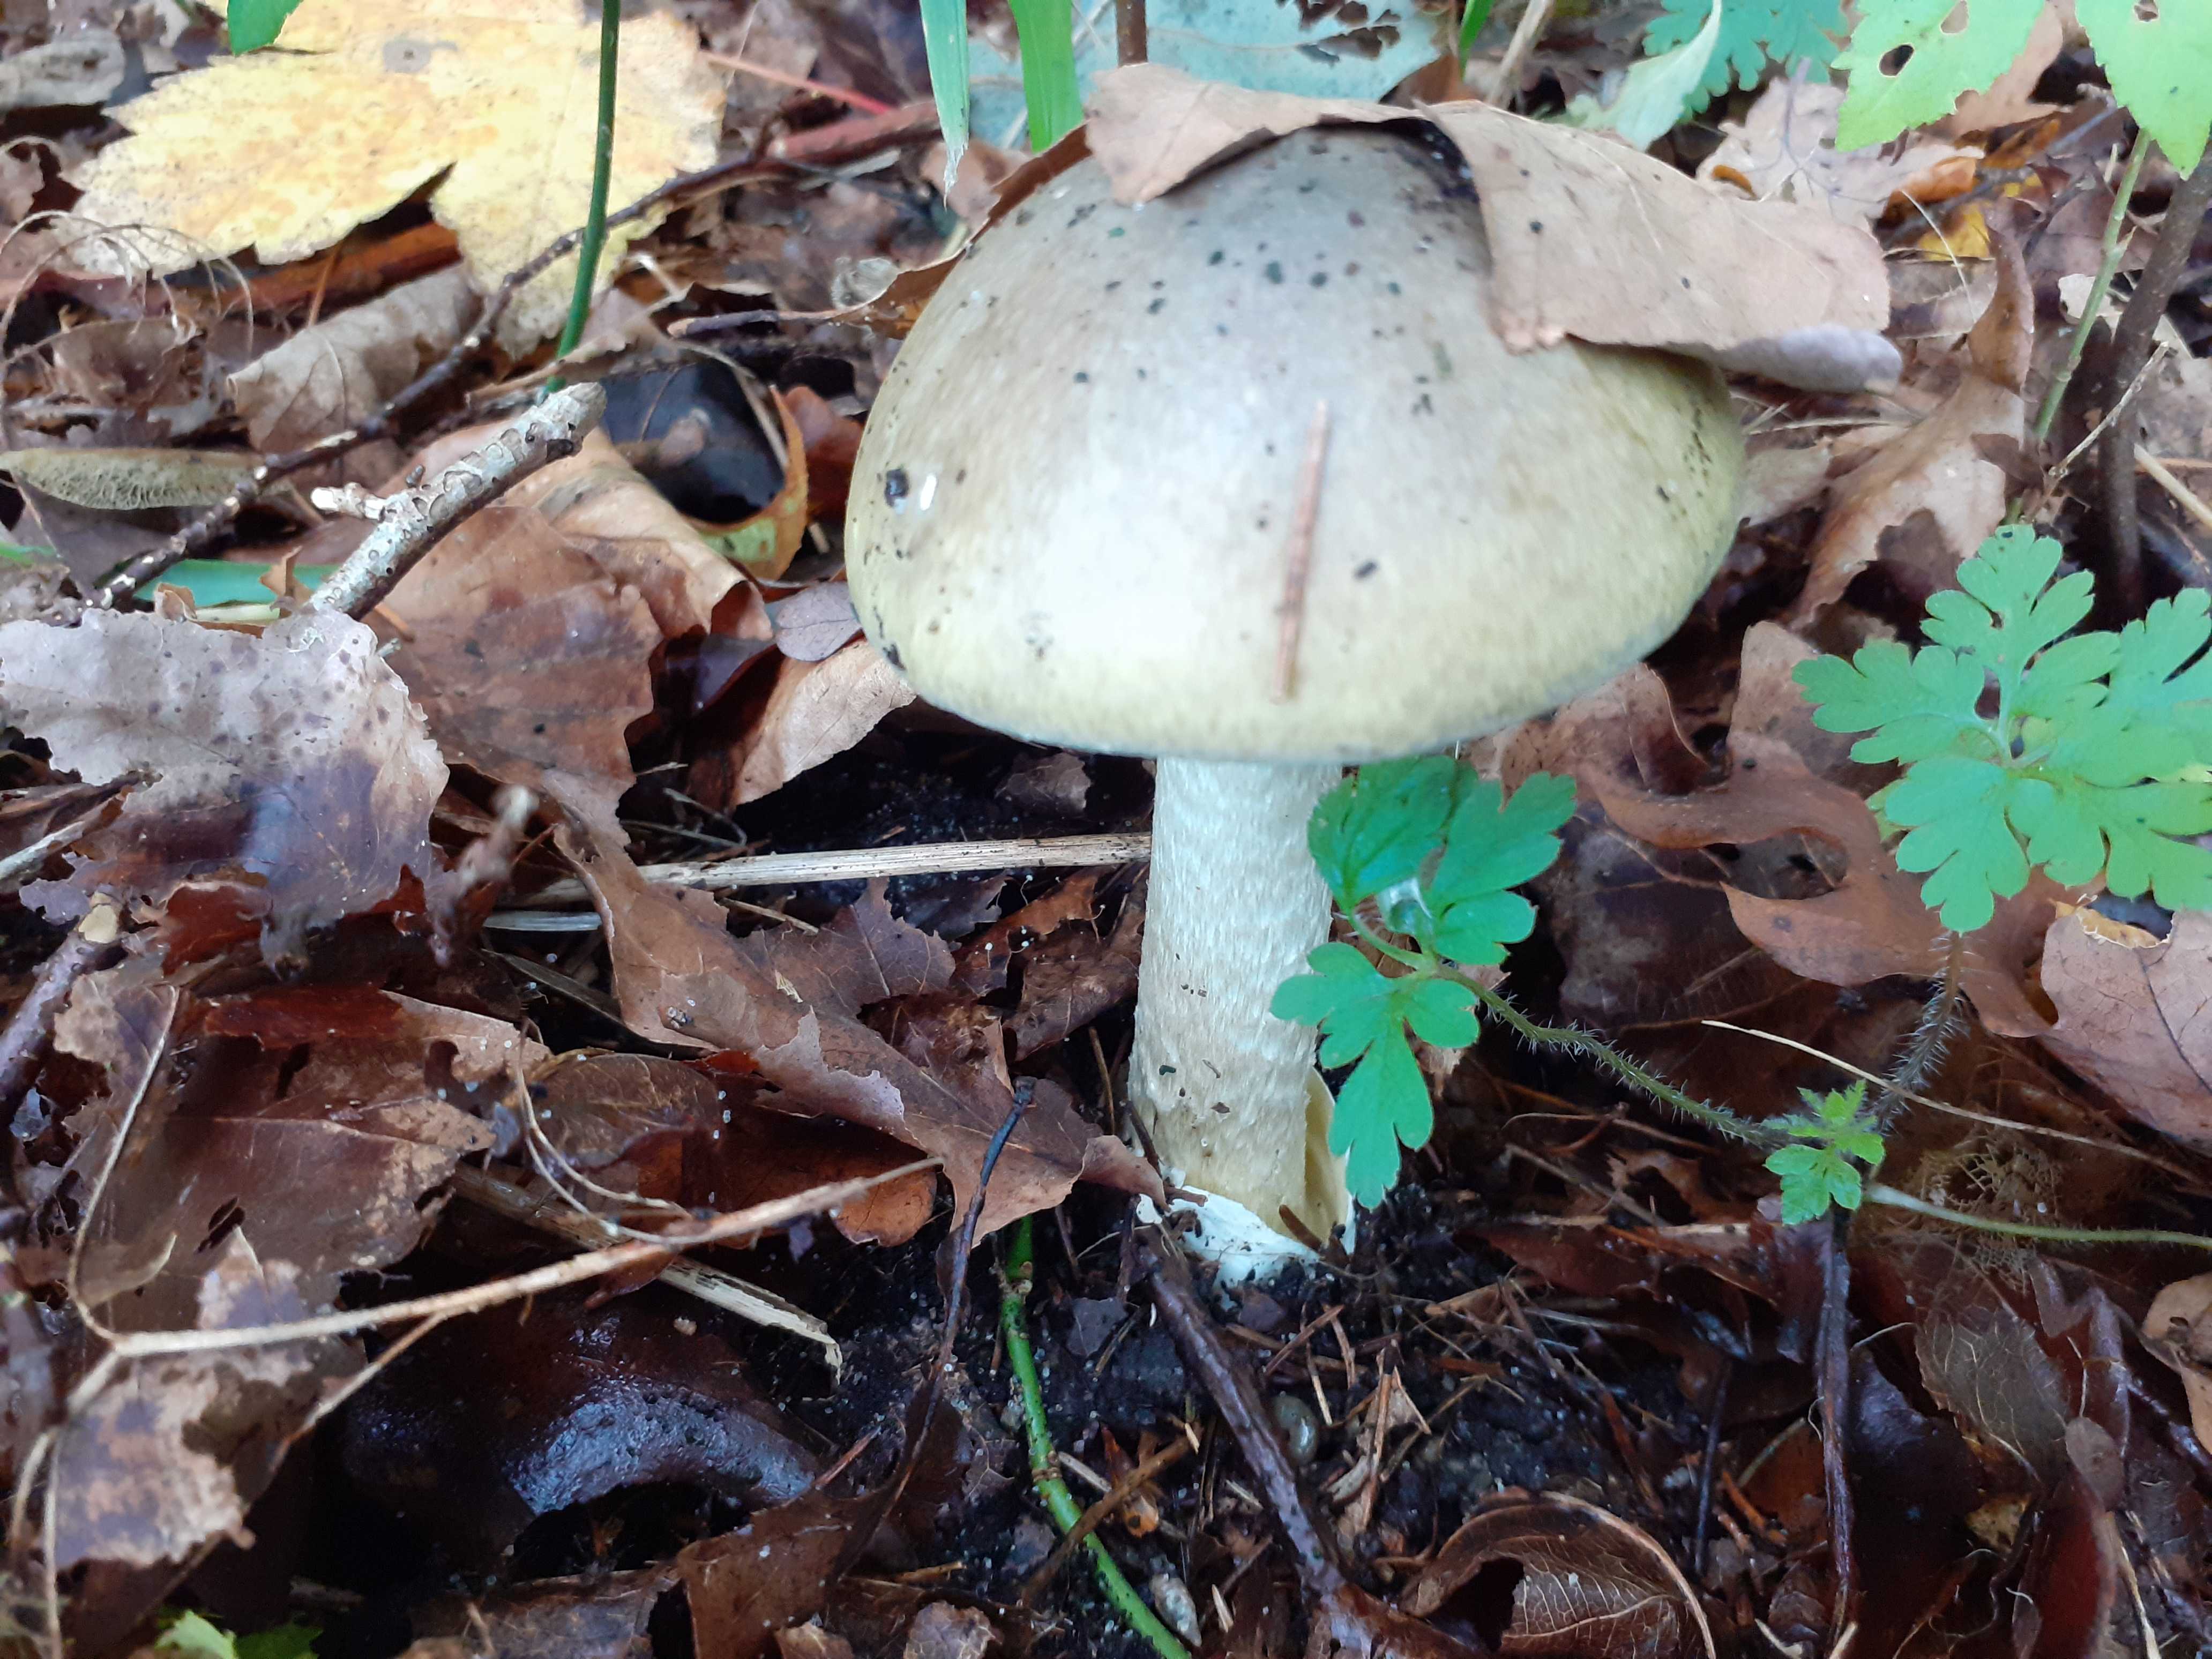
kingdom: Fungi
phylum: Basidiomycota
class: Agaricomycetes
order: Agaricales
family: Amanitaceae
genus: Amanita
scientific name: Amanita phalloides
